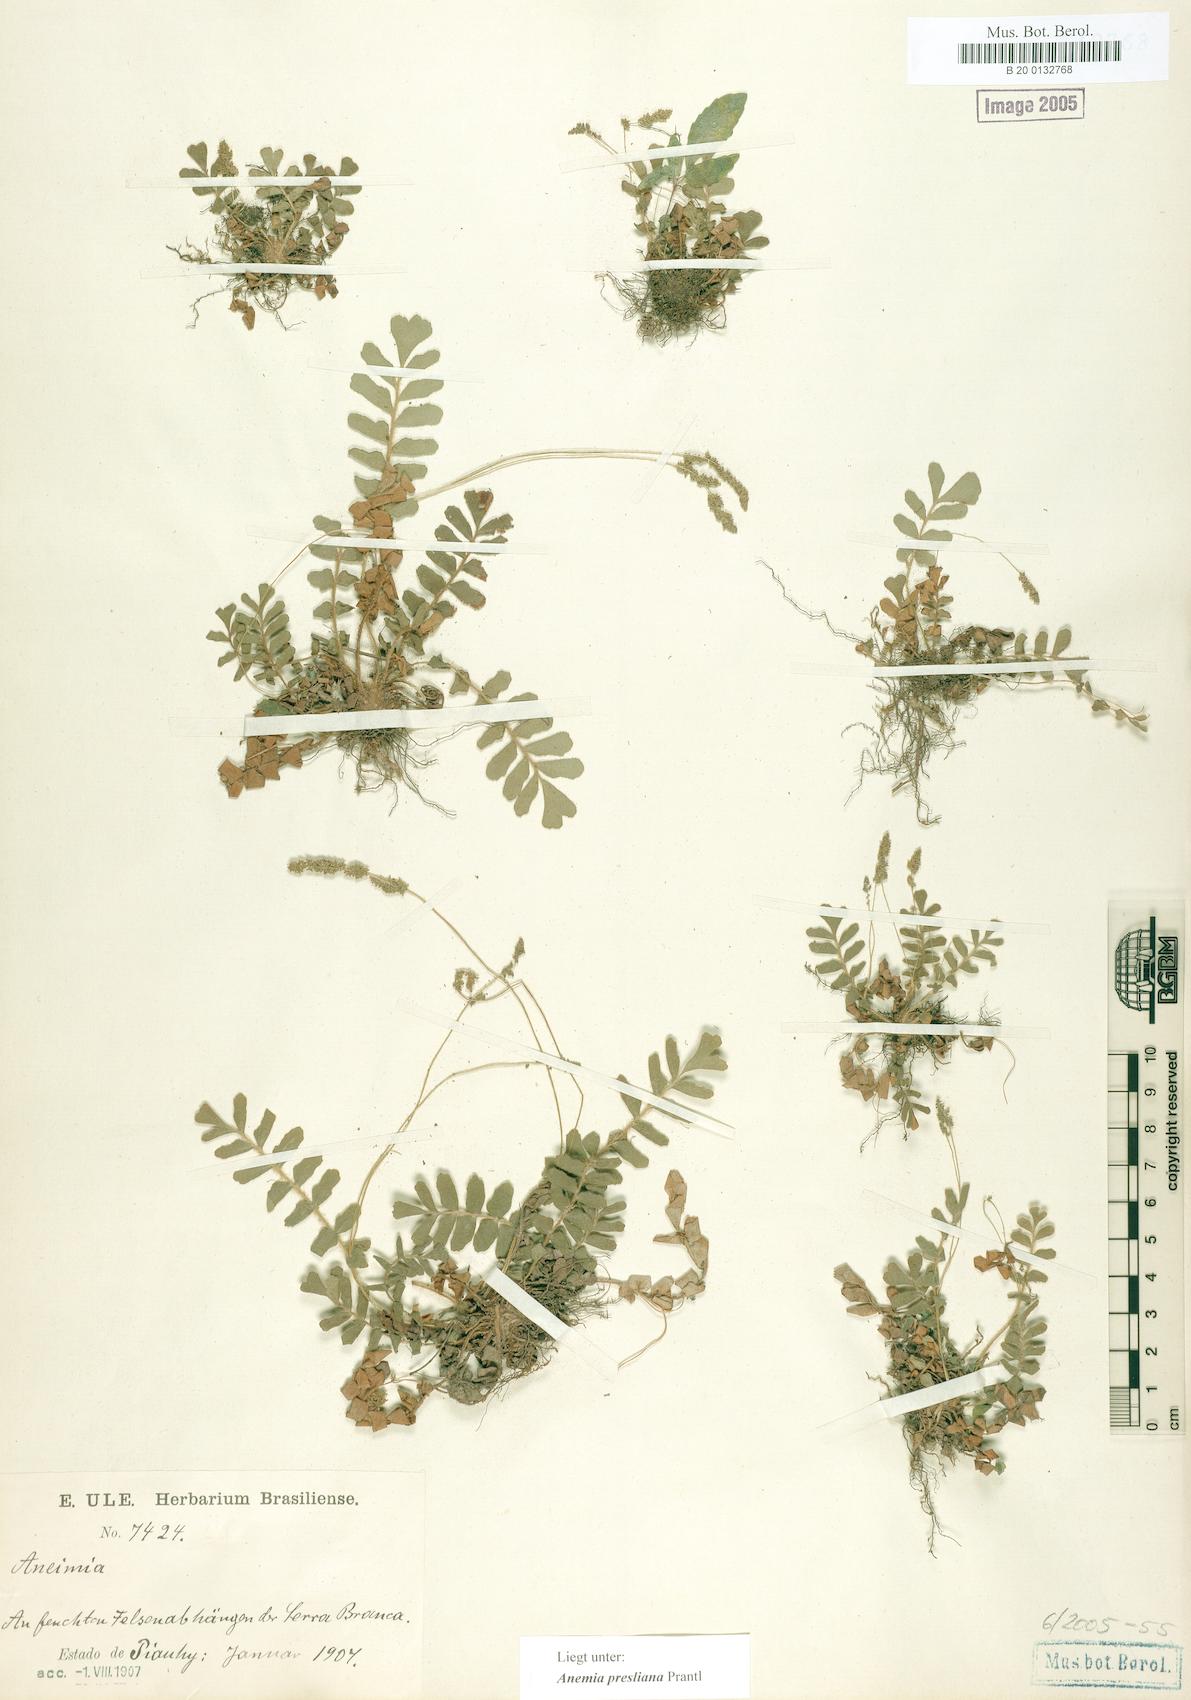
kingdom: Plantae
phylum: Tracheophyta
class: Polypodiopsida
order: Schizaeales
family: Anemiaceae
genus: Anemia
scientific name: Anemia presliana
